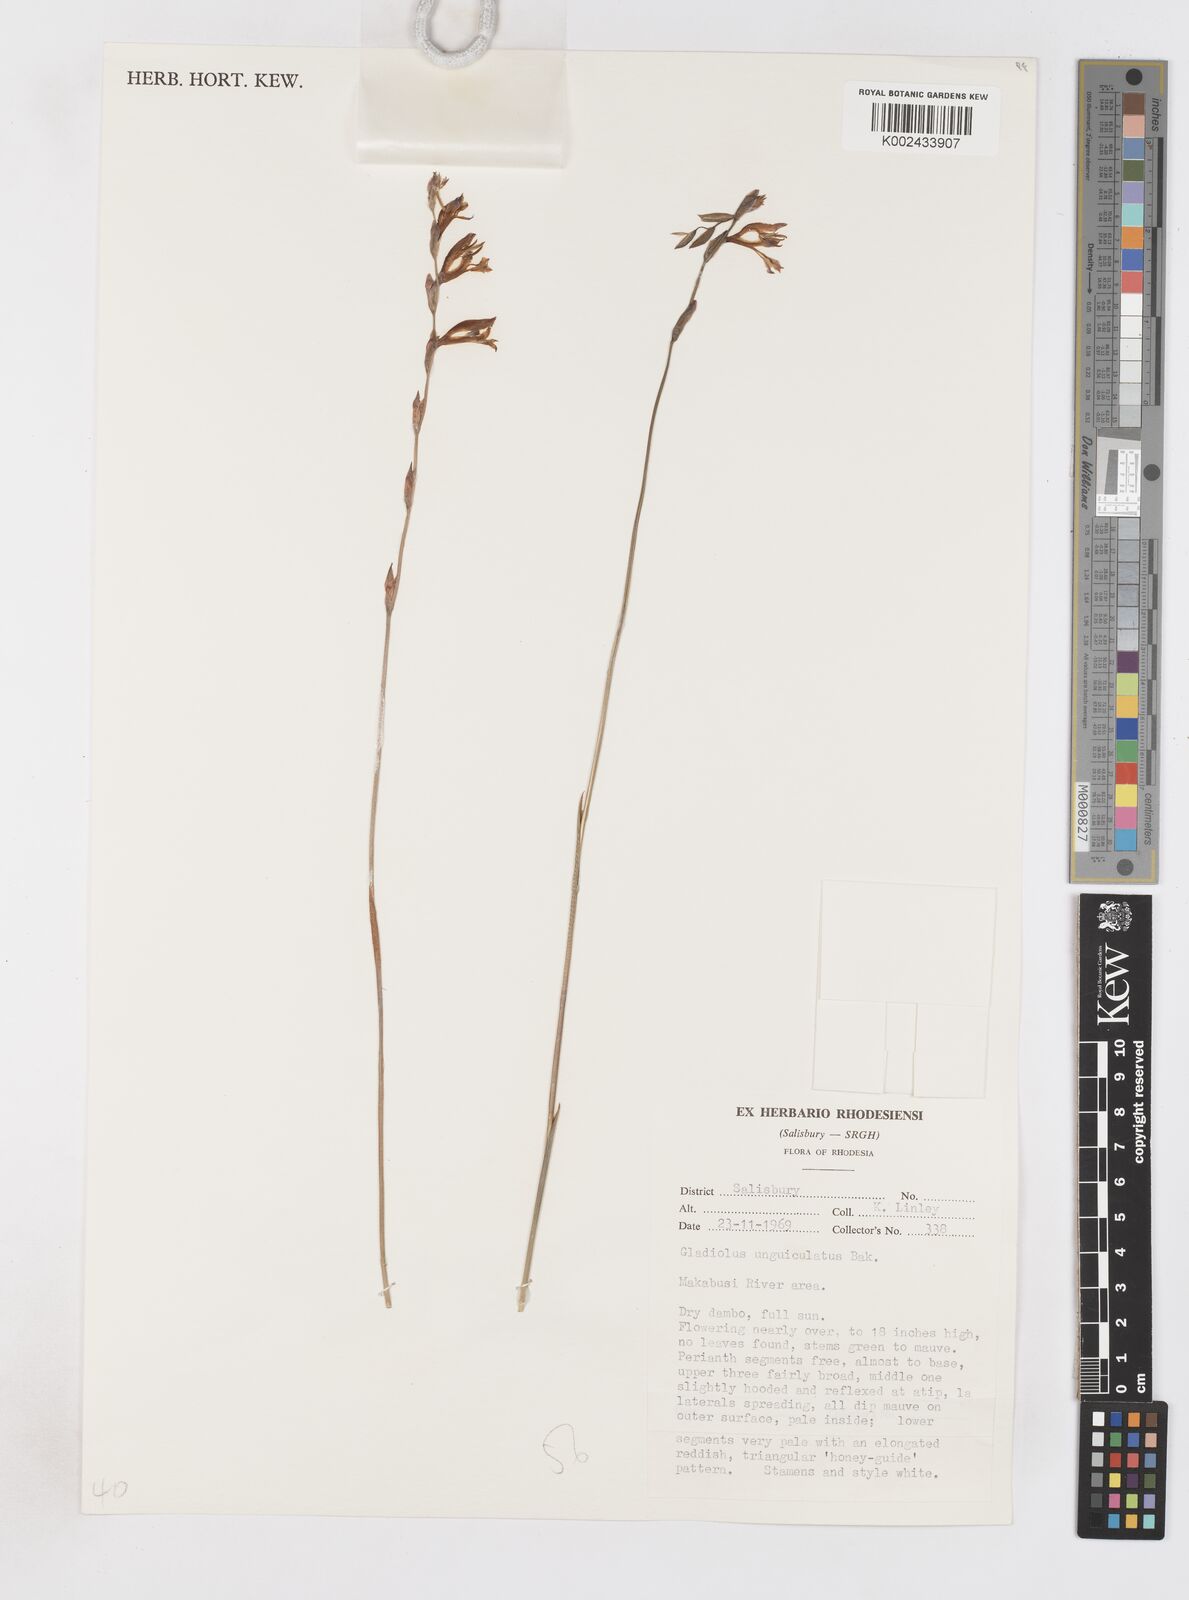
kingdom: Plantae
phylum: Tracheophyta
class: Liliopsida
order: Asparagales
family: Iridaceae
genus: Gladiolus
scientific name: Gladiolus unguiculatus
